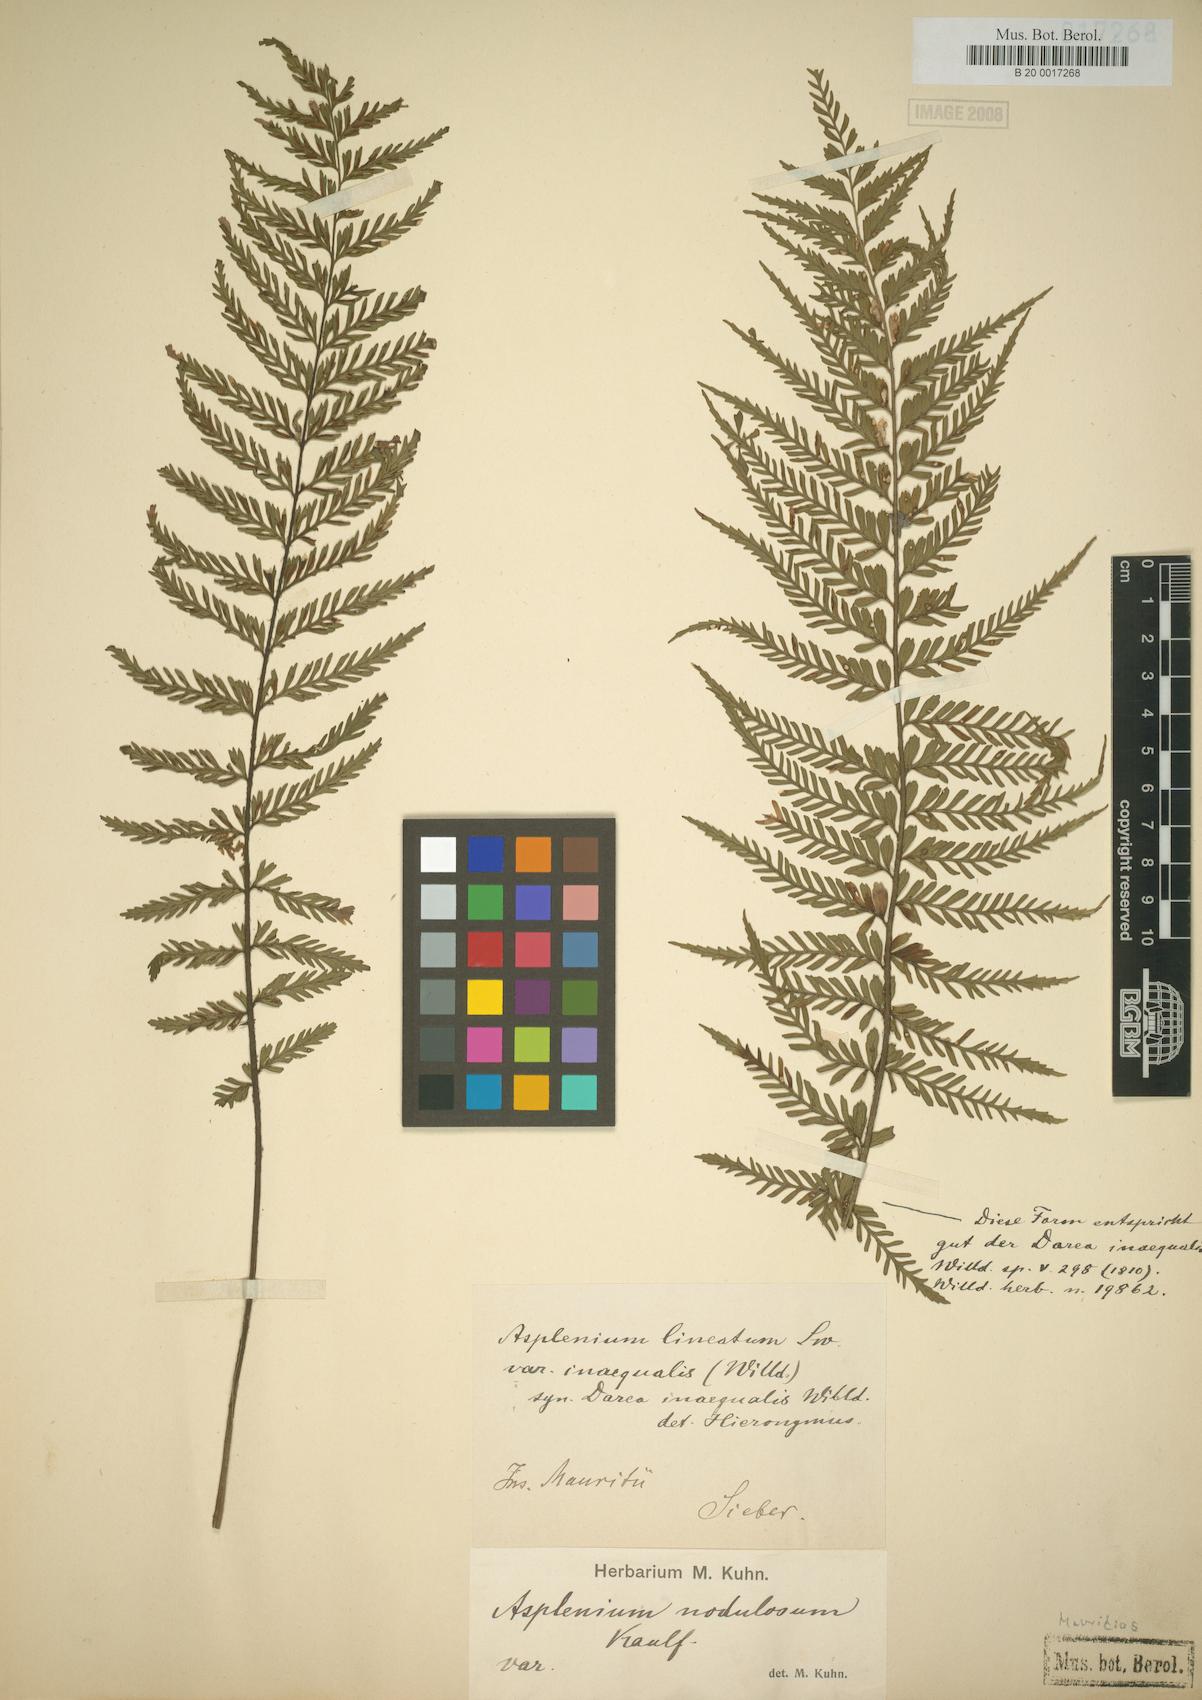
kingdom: Plantae
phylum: Tracheophyta
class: Polypodiopsida
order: Polypodiales
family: Aspleniaceae
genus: Asplenium
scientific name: Asplenium daucifolium
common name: Mauritius spleenwort
